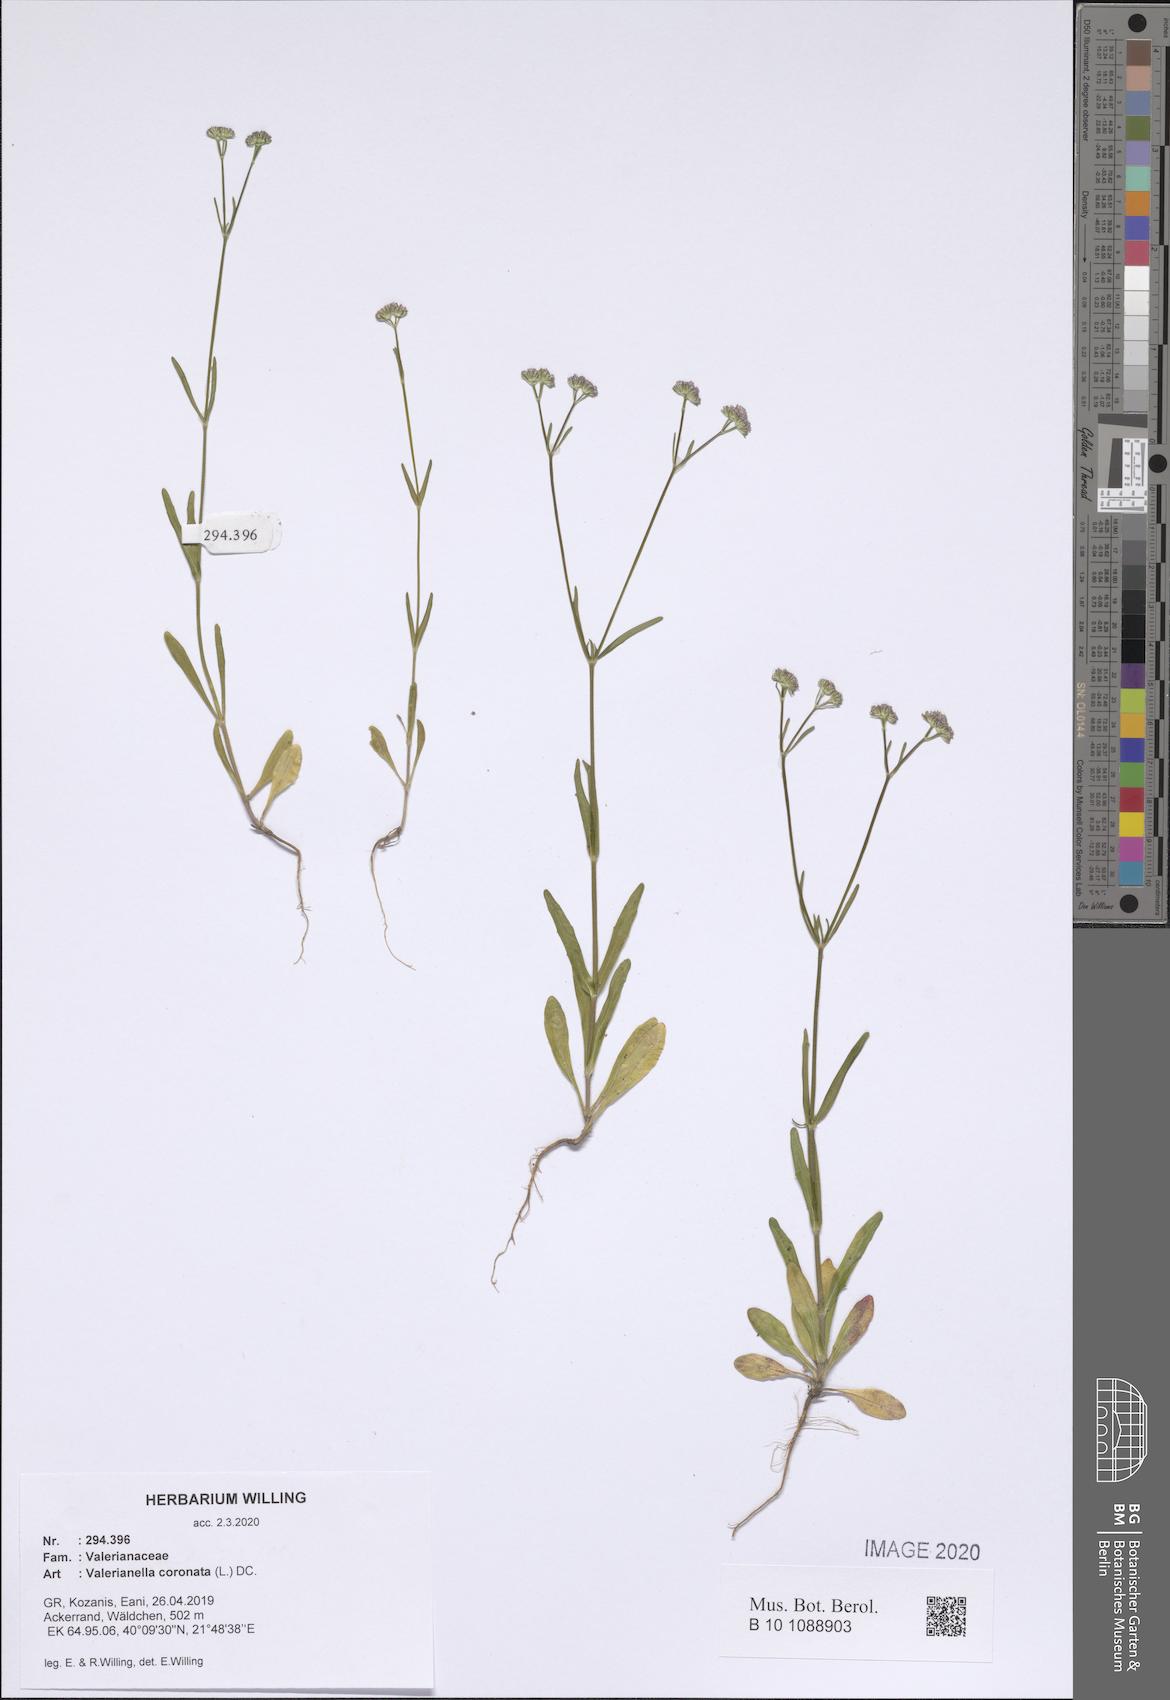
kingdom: Plantae
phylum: Tracheophyta
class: Magnoliopsida
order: Dipsacales
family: Caprifoliaceae
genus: Valerianella
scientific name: Valerianella coronata
